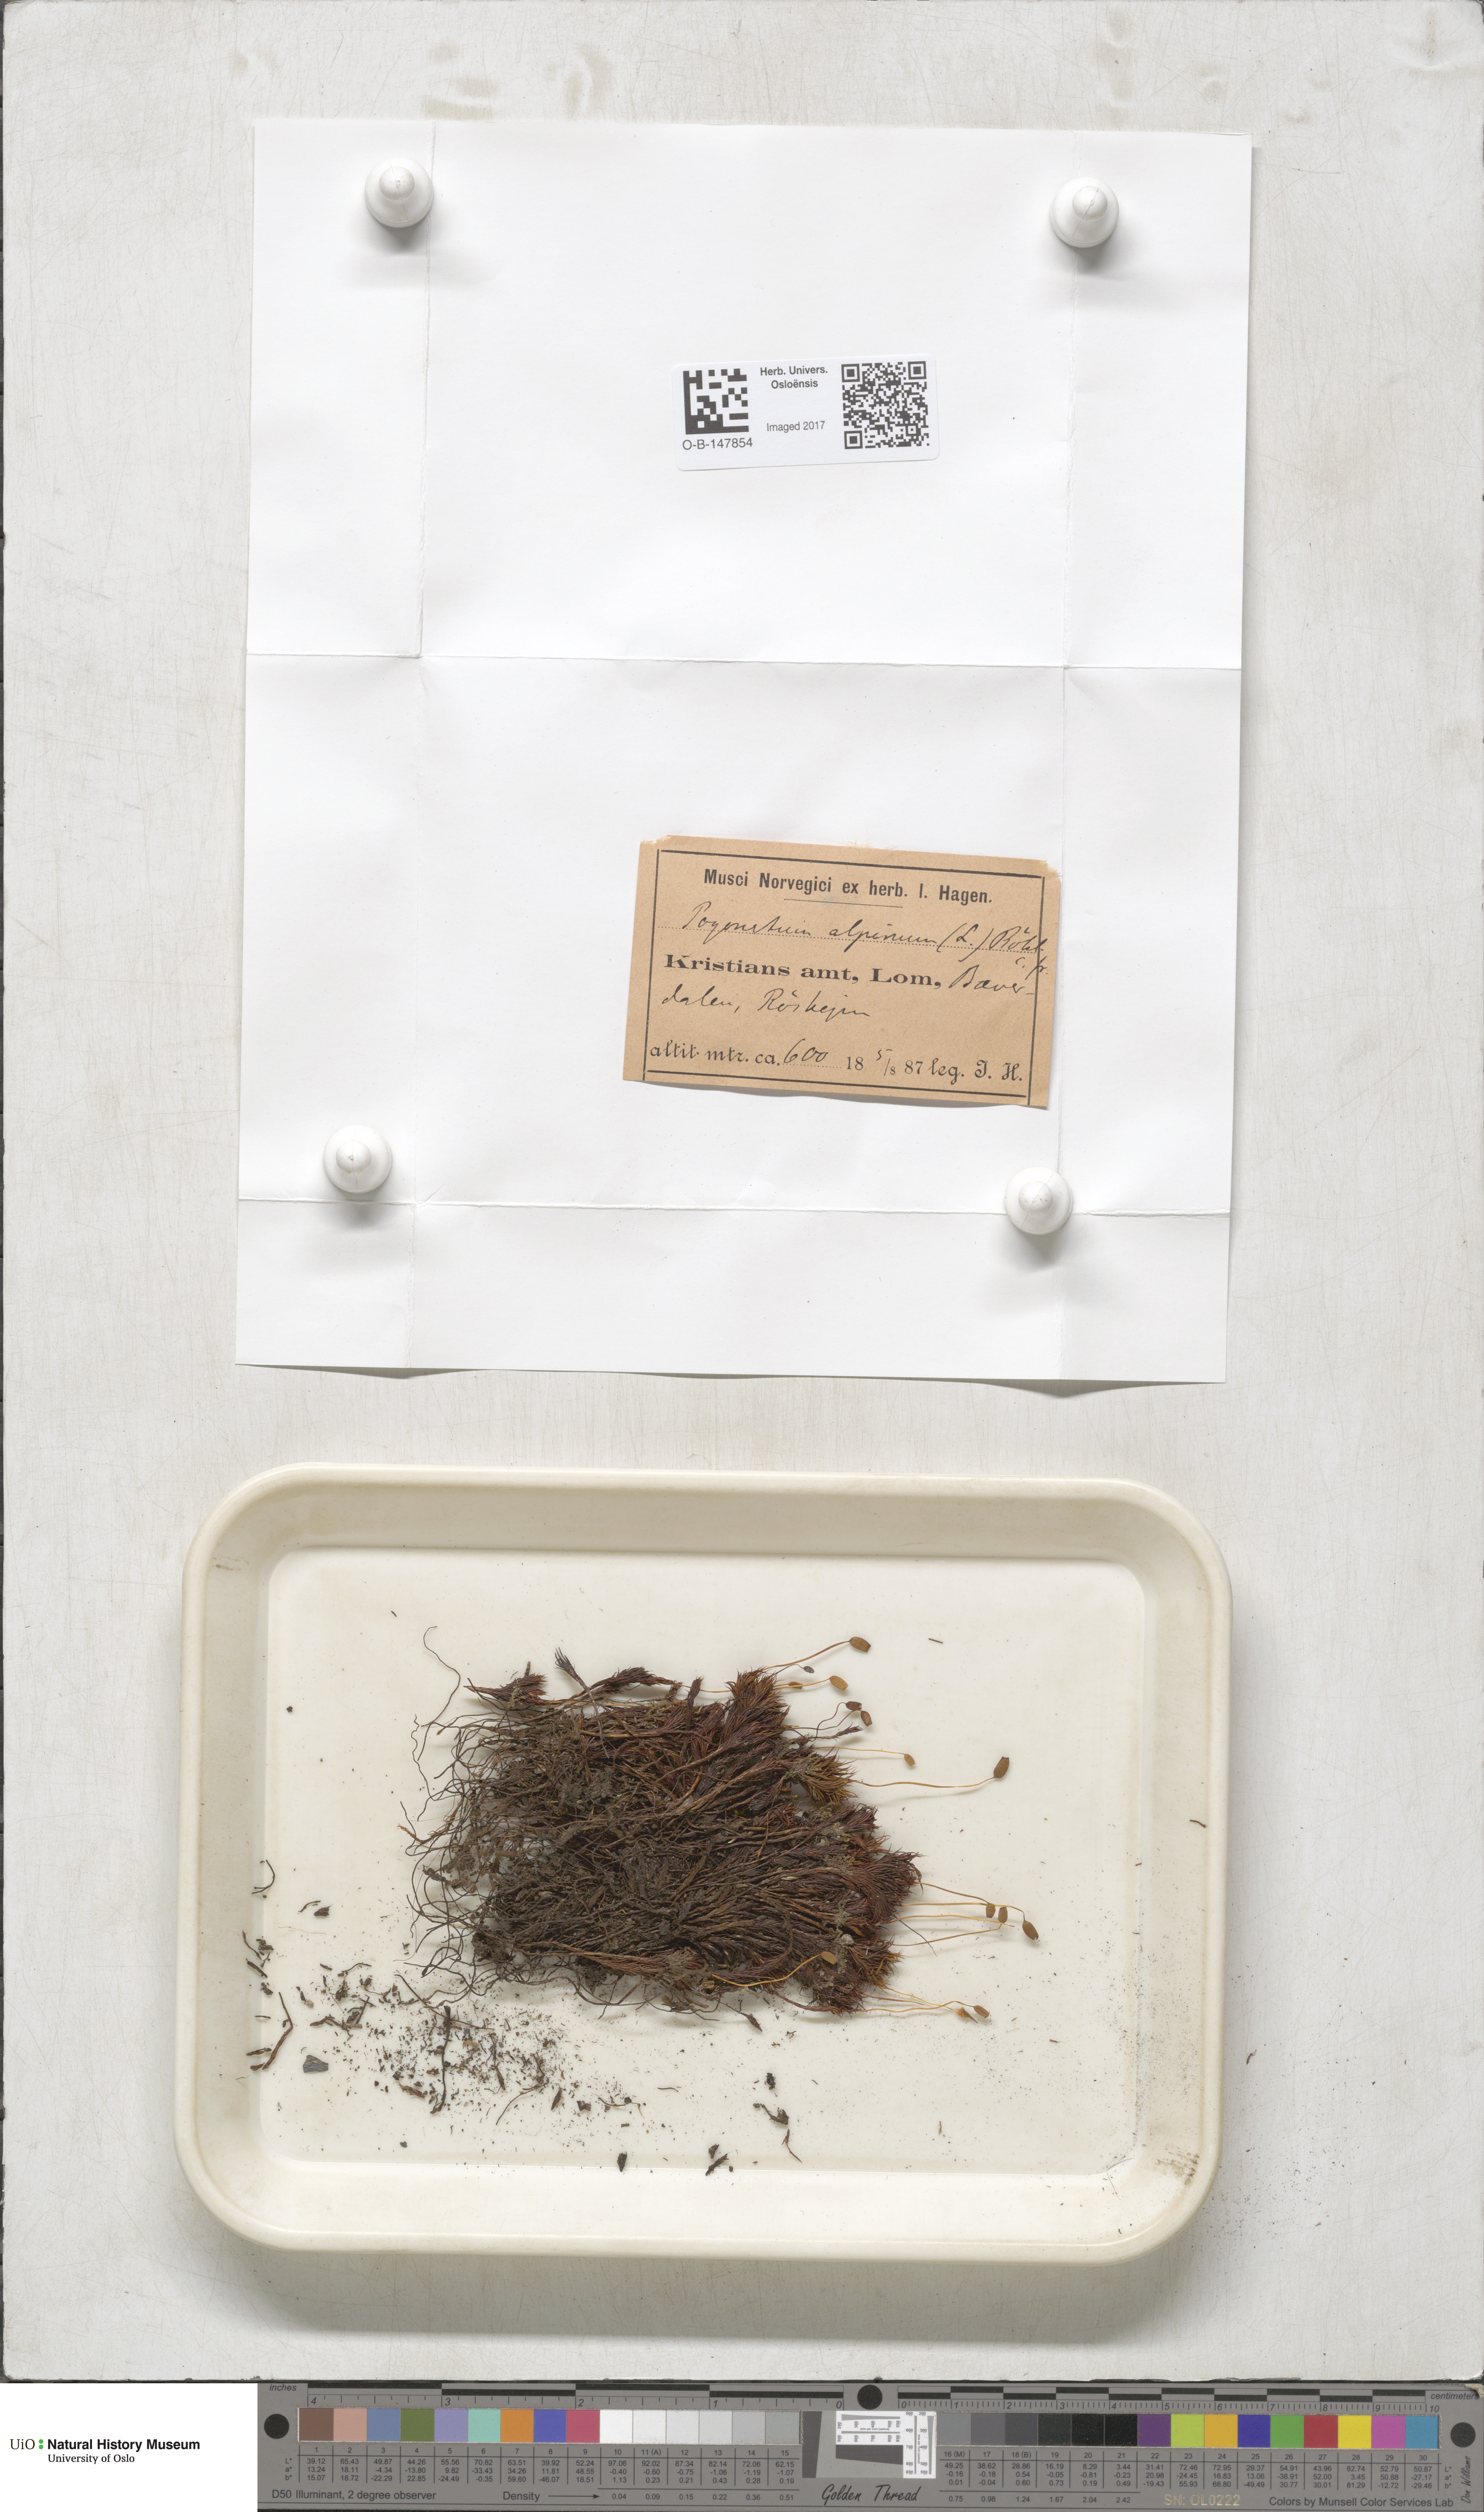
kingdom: Plantae
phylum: Bryophyta
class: Polytrichopsida
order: Polytrichales
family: Polytrichaceae
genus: Polytrichastrum
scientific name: Polytrichastrum alpinum
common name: Alpine haircap
